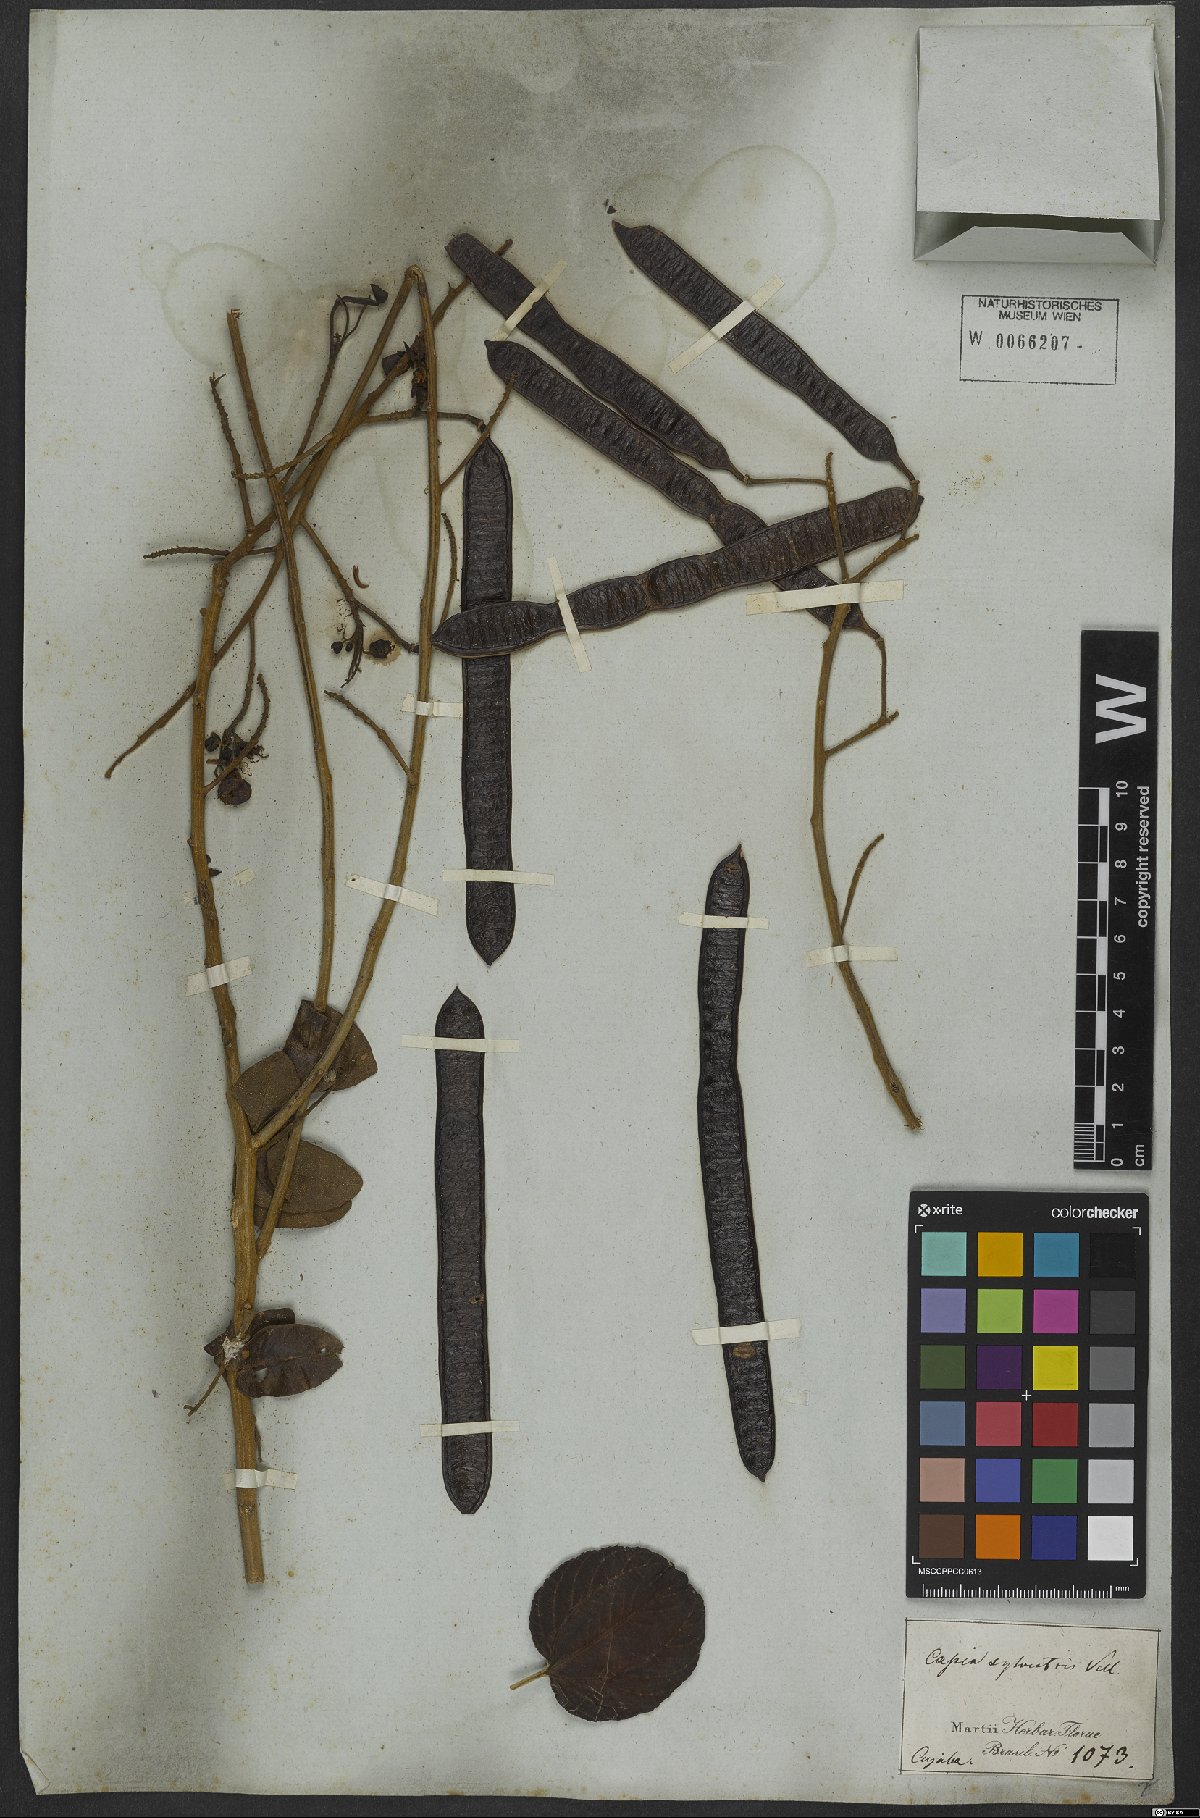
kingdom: Plantae
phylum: Tracheophyta
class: Magnoliopsida
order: Fabales
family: Fabaceae
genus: Senna
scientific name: Senna silvestris
